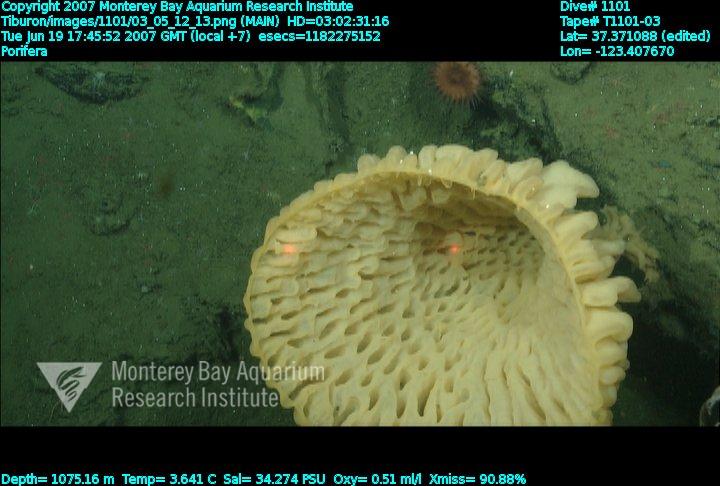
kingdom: Animalia
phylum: Porifera
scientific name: Porifera
